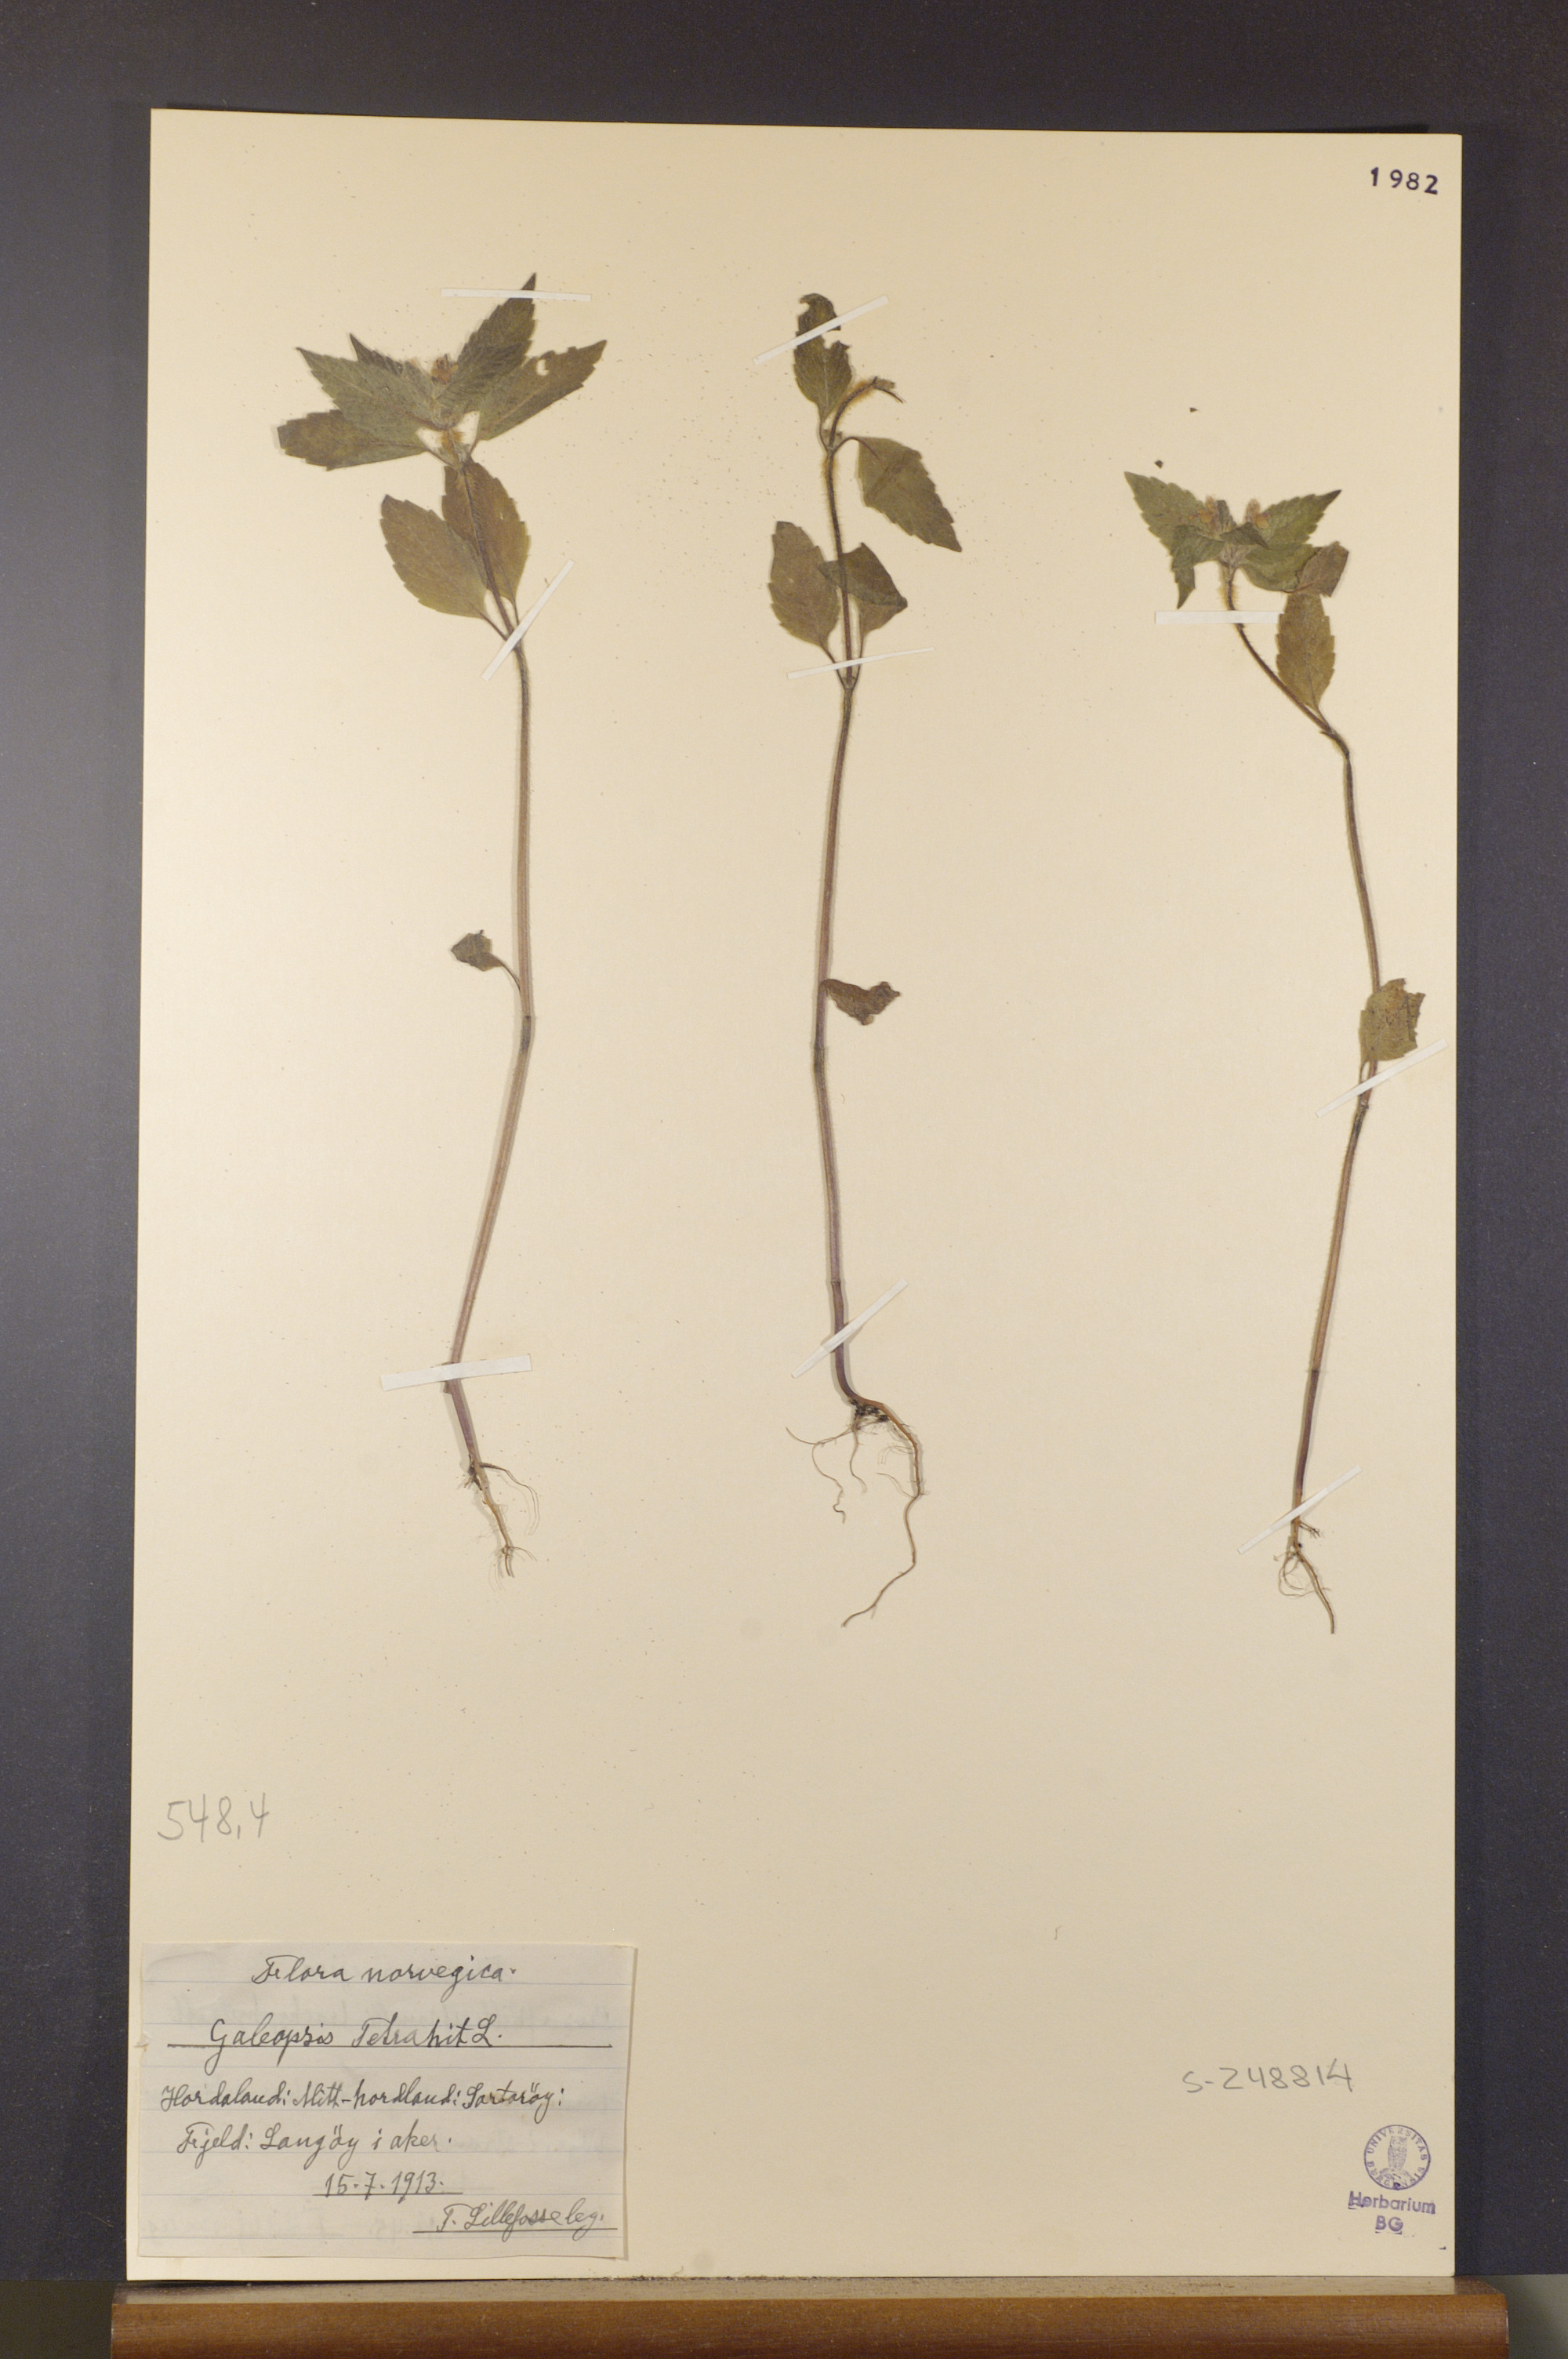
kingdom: Plantae
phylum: Tracheophyta
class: Magnoliopsida
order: Lamiales
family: Lamiaceae
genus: Galeopsis
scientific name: Galeopsis tetrahit
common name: Common hemp-nettle
